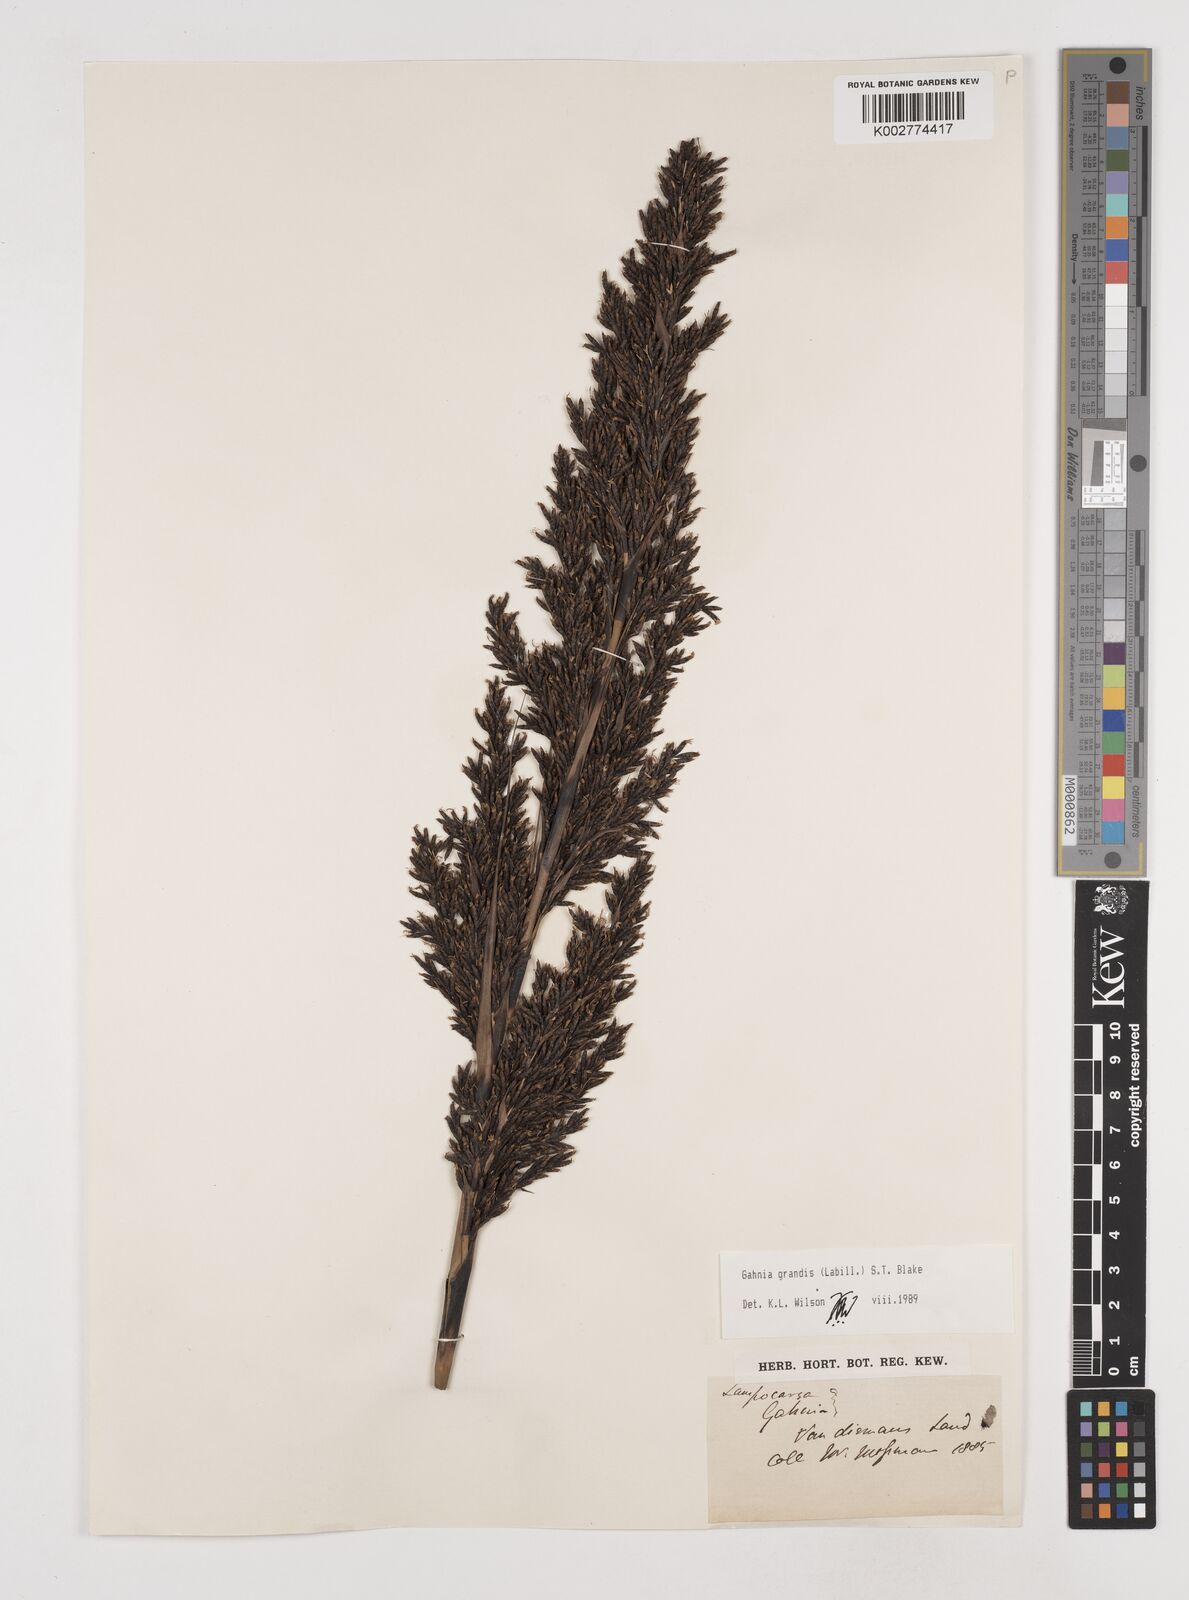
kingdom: Plantae
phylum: Tracheophyta
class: Liliopsida
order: Poales
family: Cyperaceae
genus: Gahnia
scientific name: Gahnia grandis
